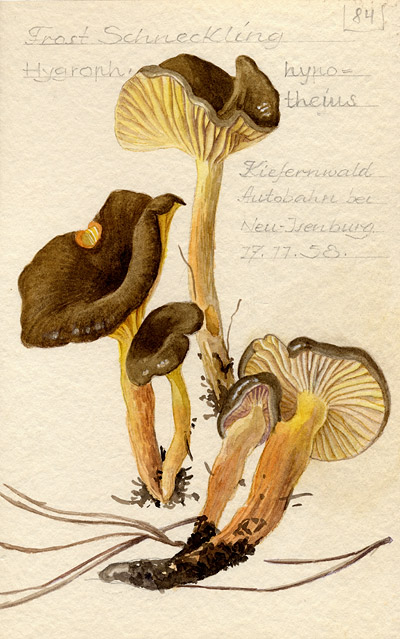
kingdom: Fungi
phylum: Basidiomycota
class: Agaricomycetes
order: Agaricales
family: Hygrophoraceae
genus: Hygrophorus
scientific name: Hygrophorus hypothejus
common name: Herald of winter
